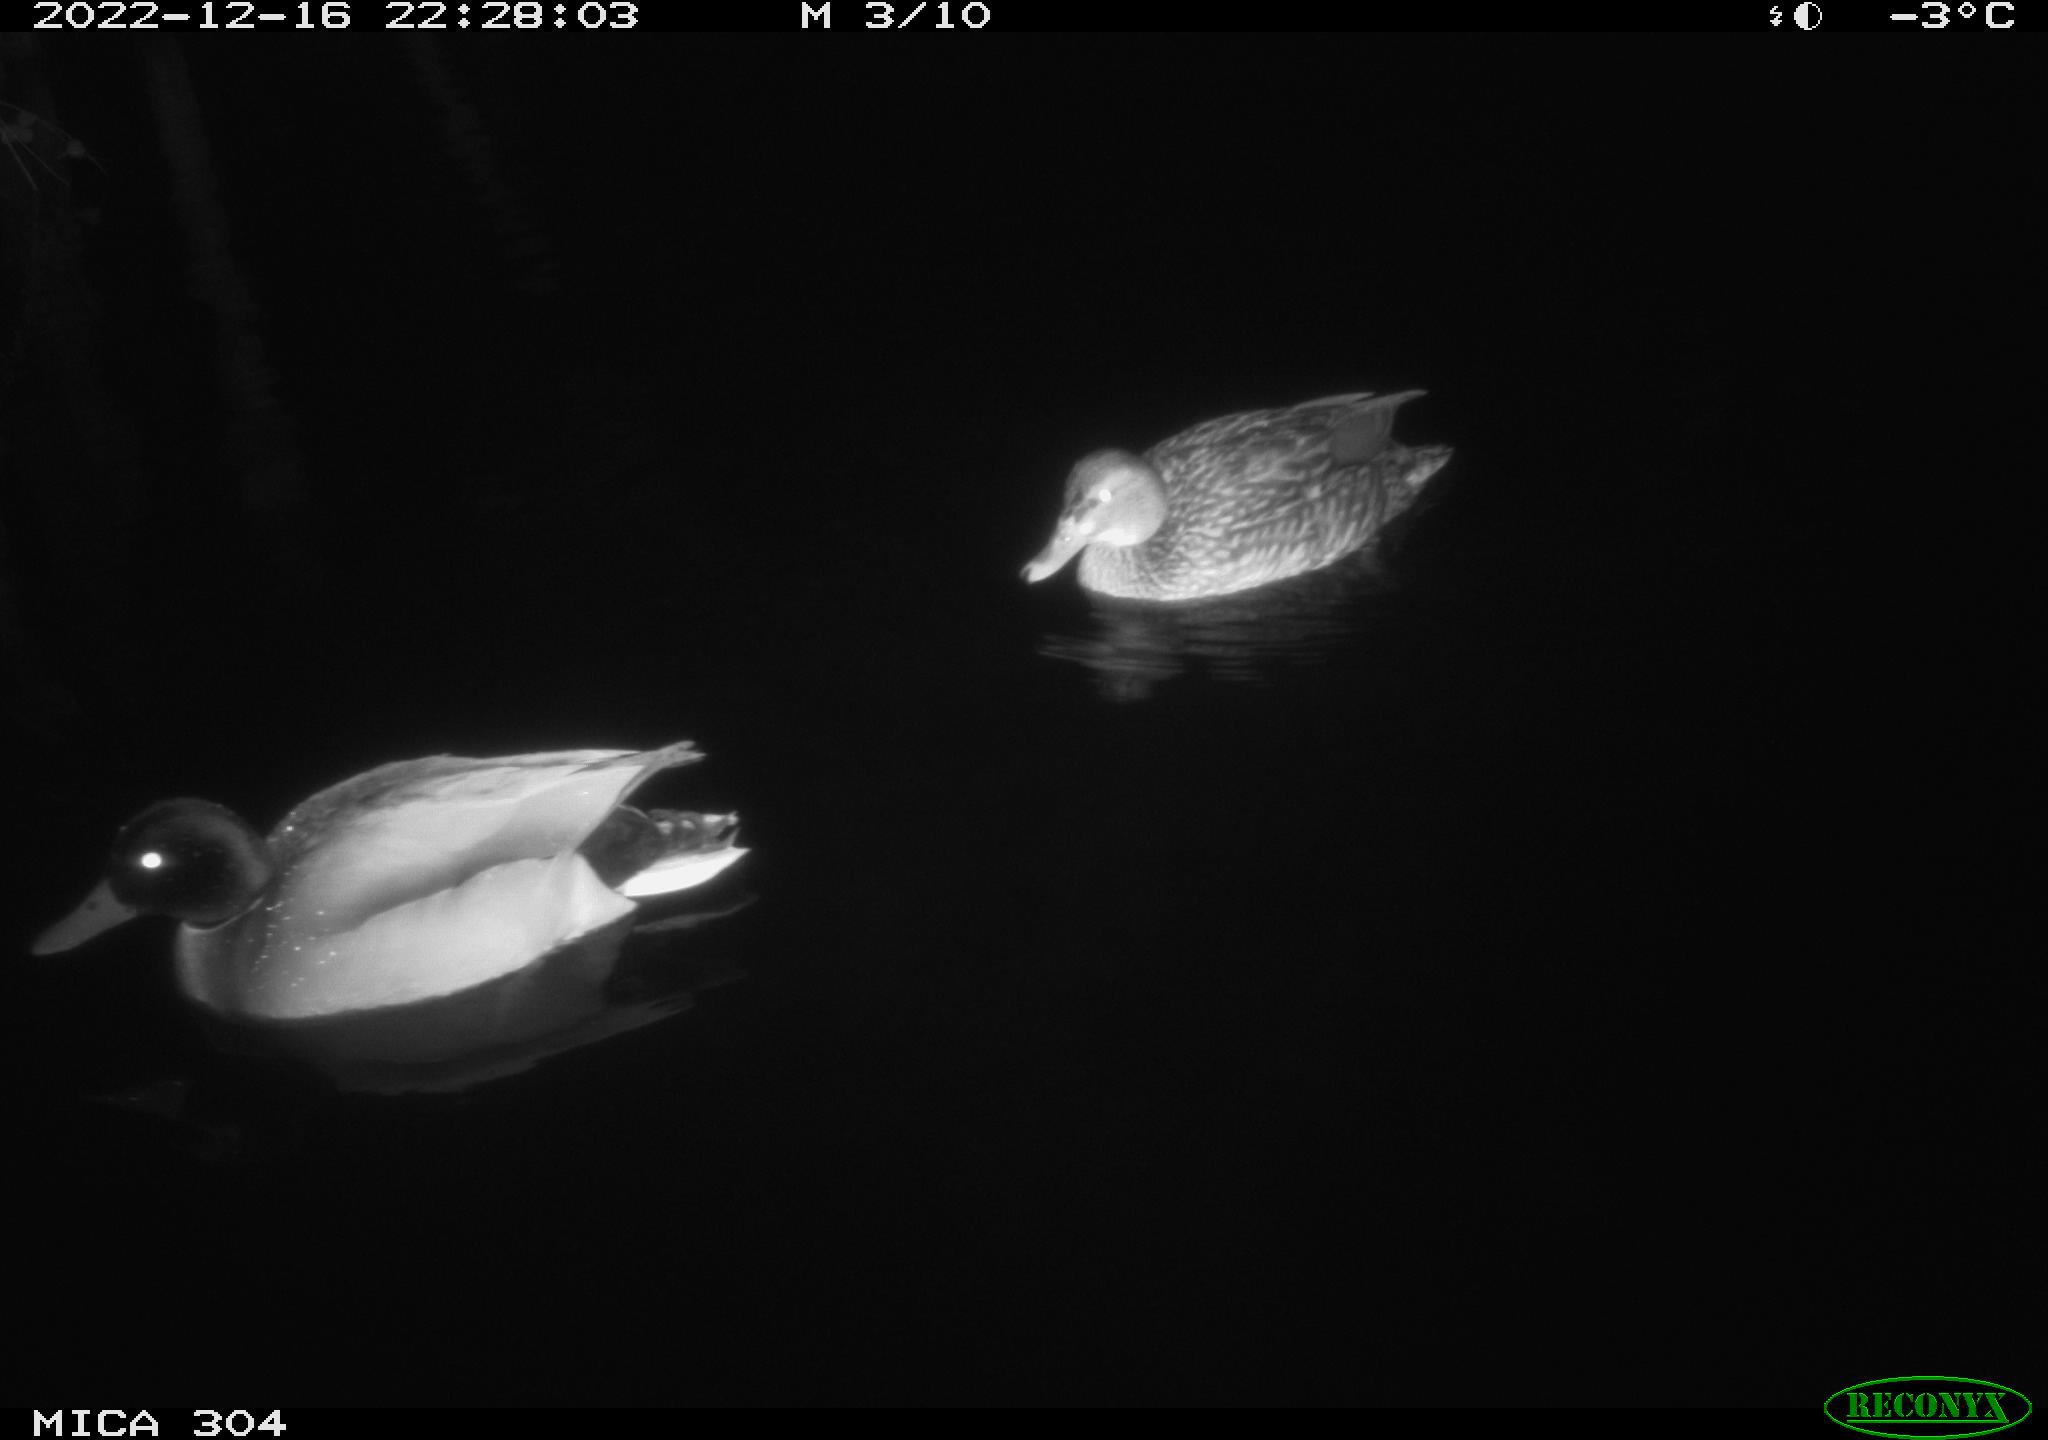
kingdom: Animalia
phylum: Chordata
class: Aves
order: Anseriformes
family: Anatidae
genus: Anas
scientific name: Anas
